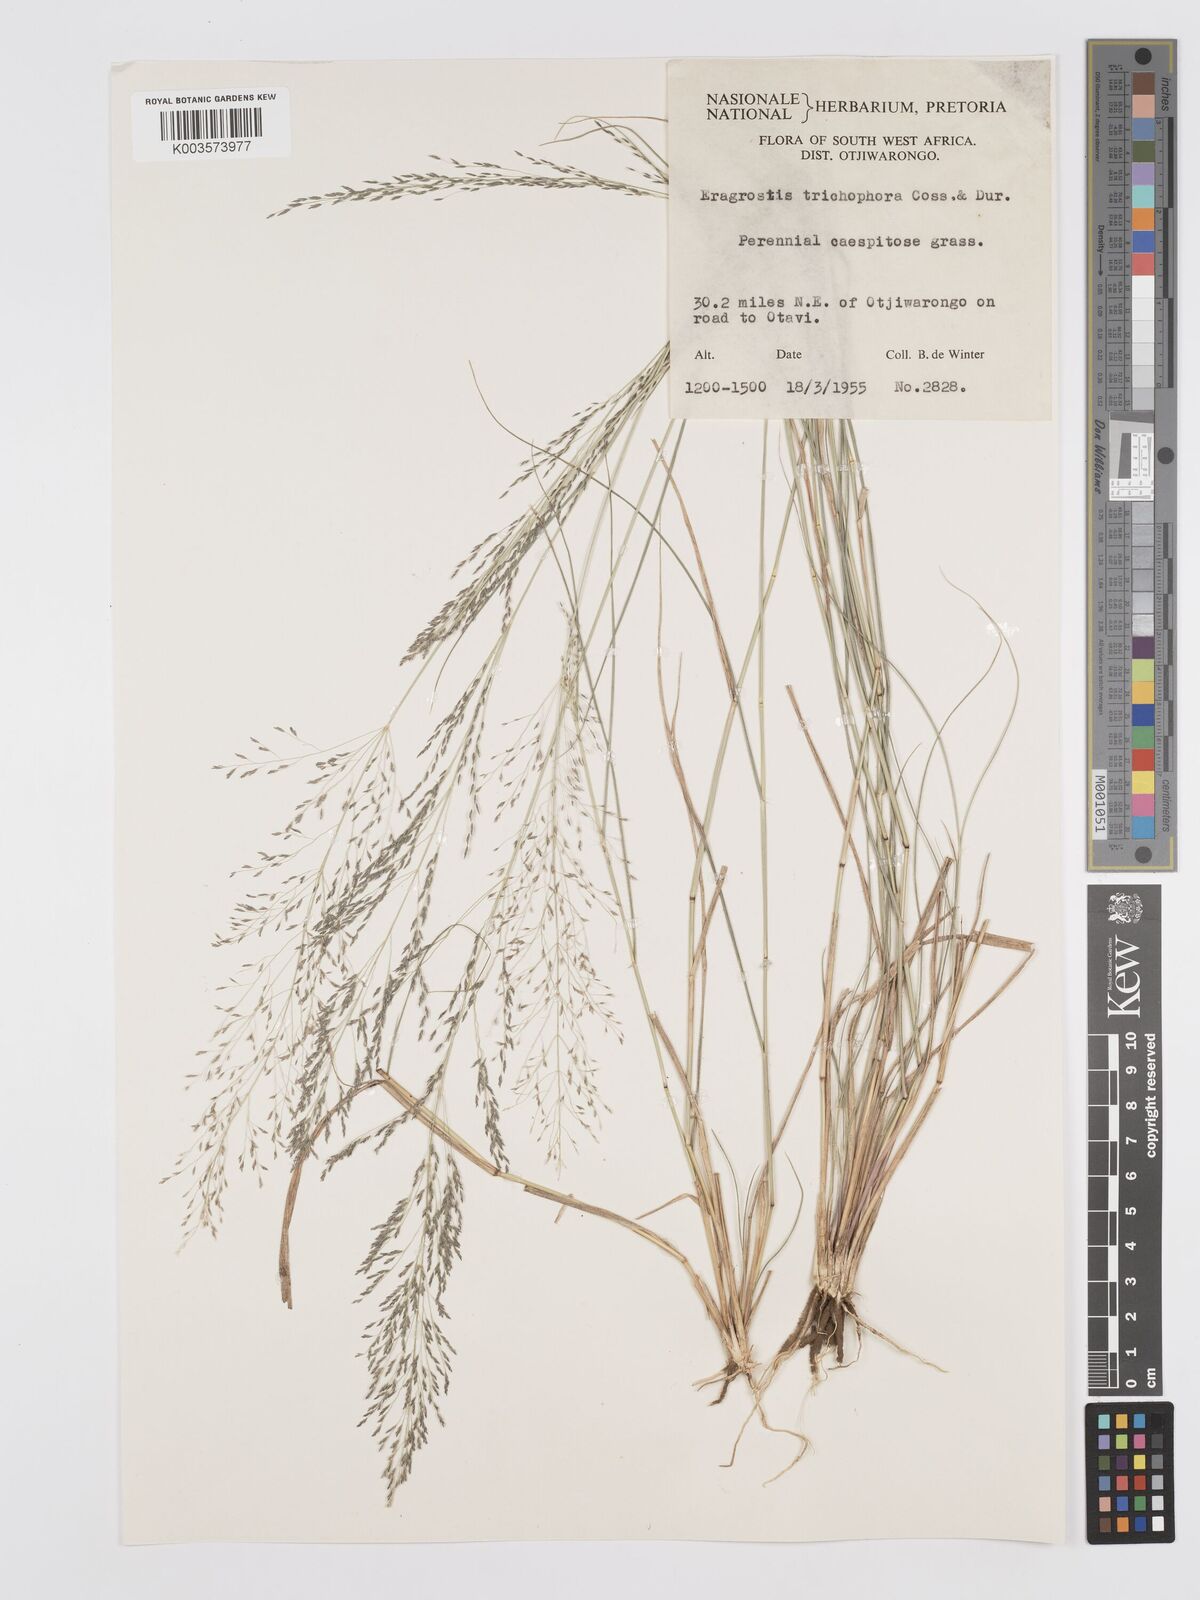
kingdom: Plantae
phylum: Tracheophyta
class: Liliopsida
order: Poales
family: Poaceae
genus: Eragrostis
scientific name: Eragrostis cylindriflora
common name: Cylinderflower lovegrass
